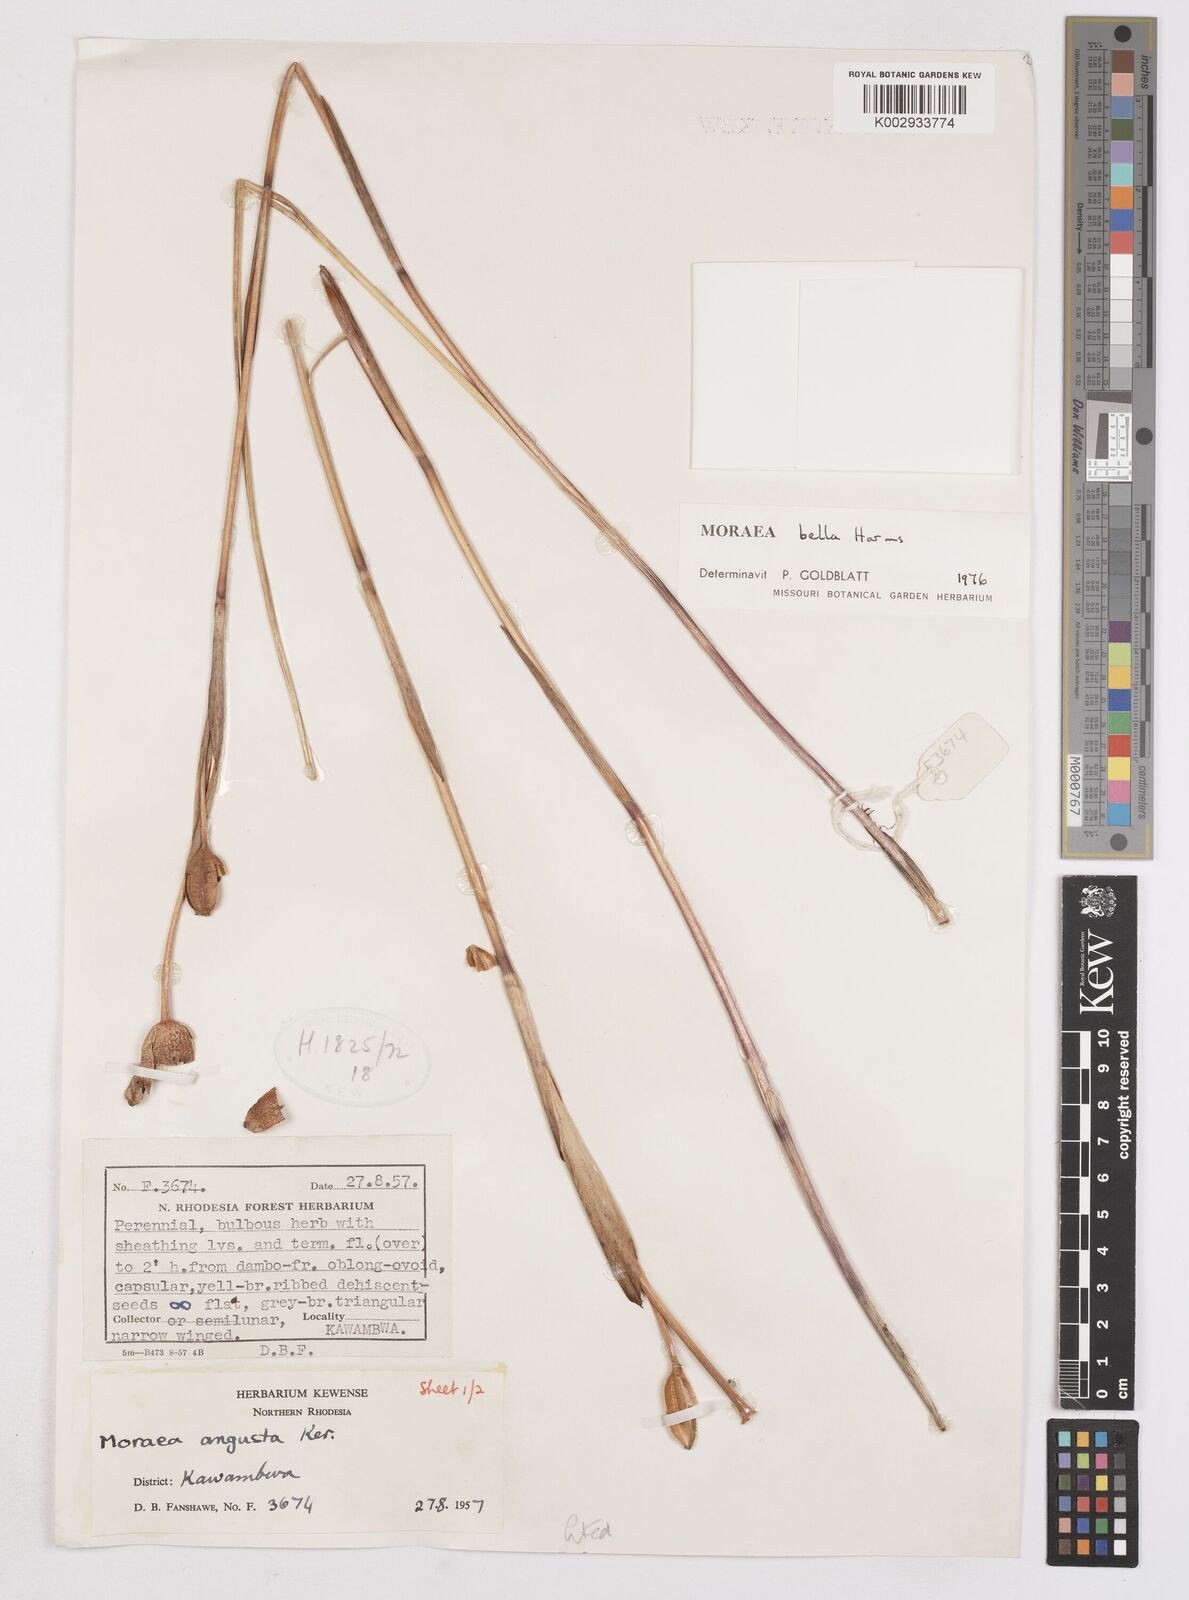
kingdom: Plantae
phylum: Tracheophyta
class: Liliopsida
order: Asparagales
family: Iridaceae
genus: Moraea
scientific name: Moraea bella
